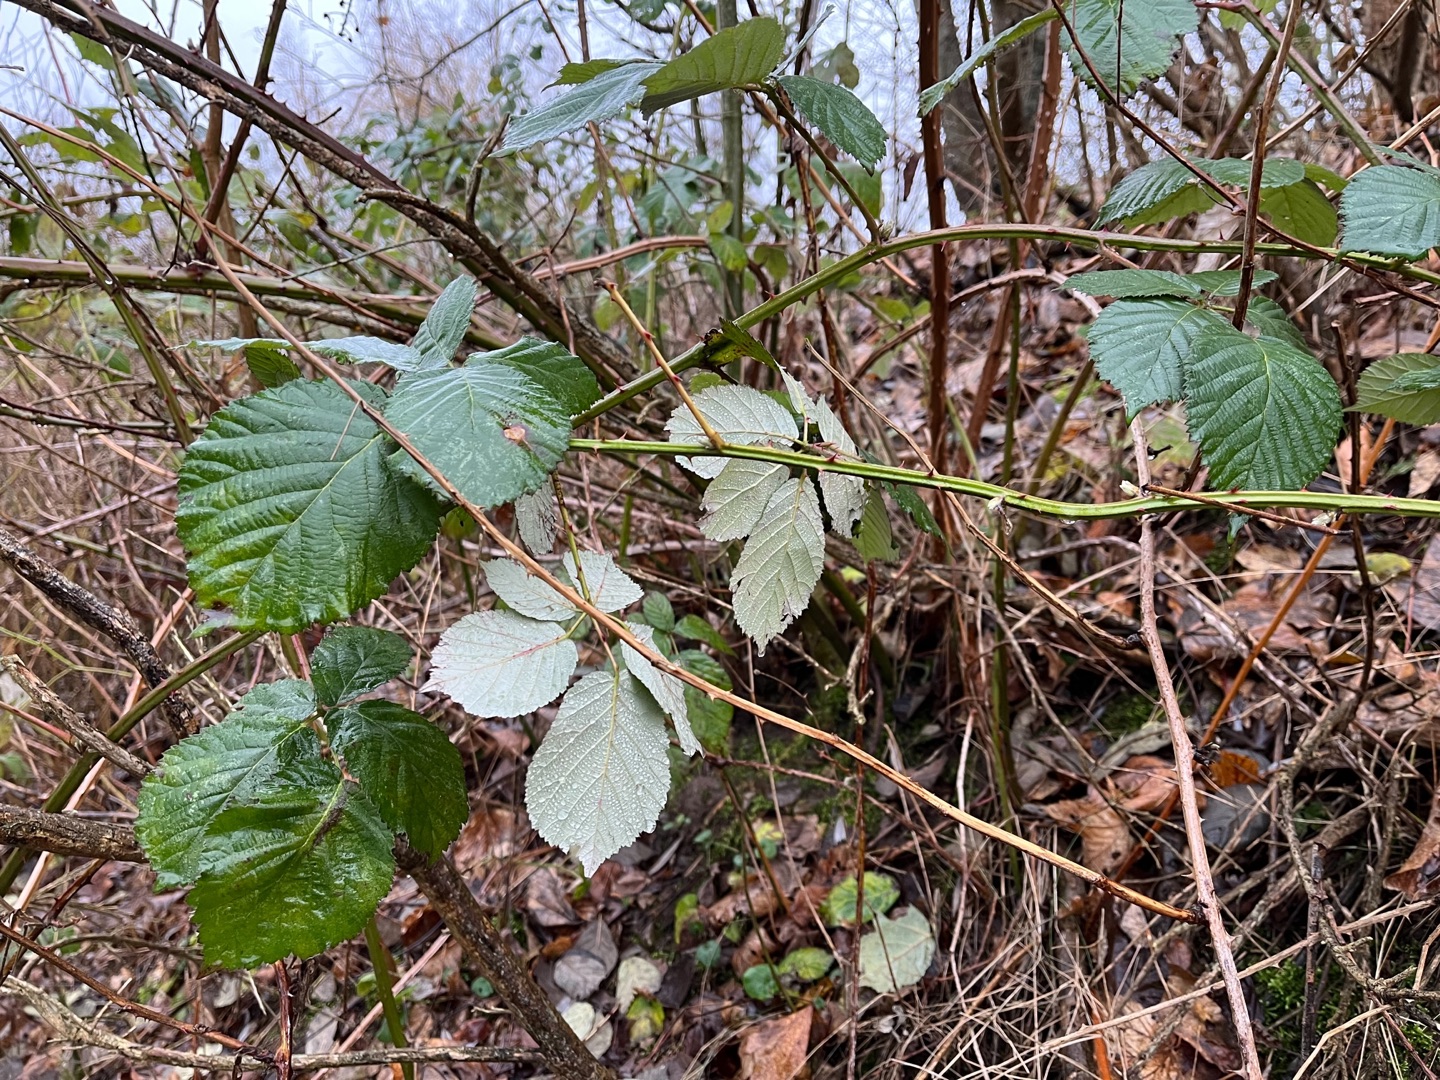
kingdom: Plantae
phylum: Tracheophyta
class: Magnoliopsida
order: Rosales
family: Rosaceae
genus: Rubus
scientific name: Rubus armeniacus
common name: Armensk brombær
